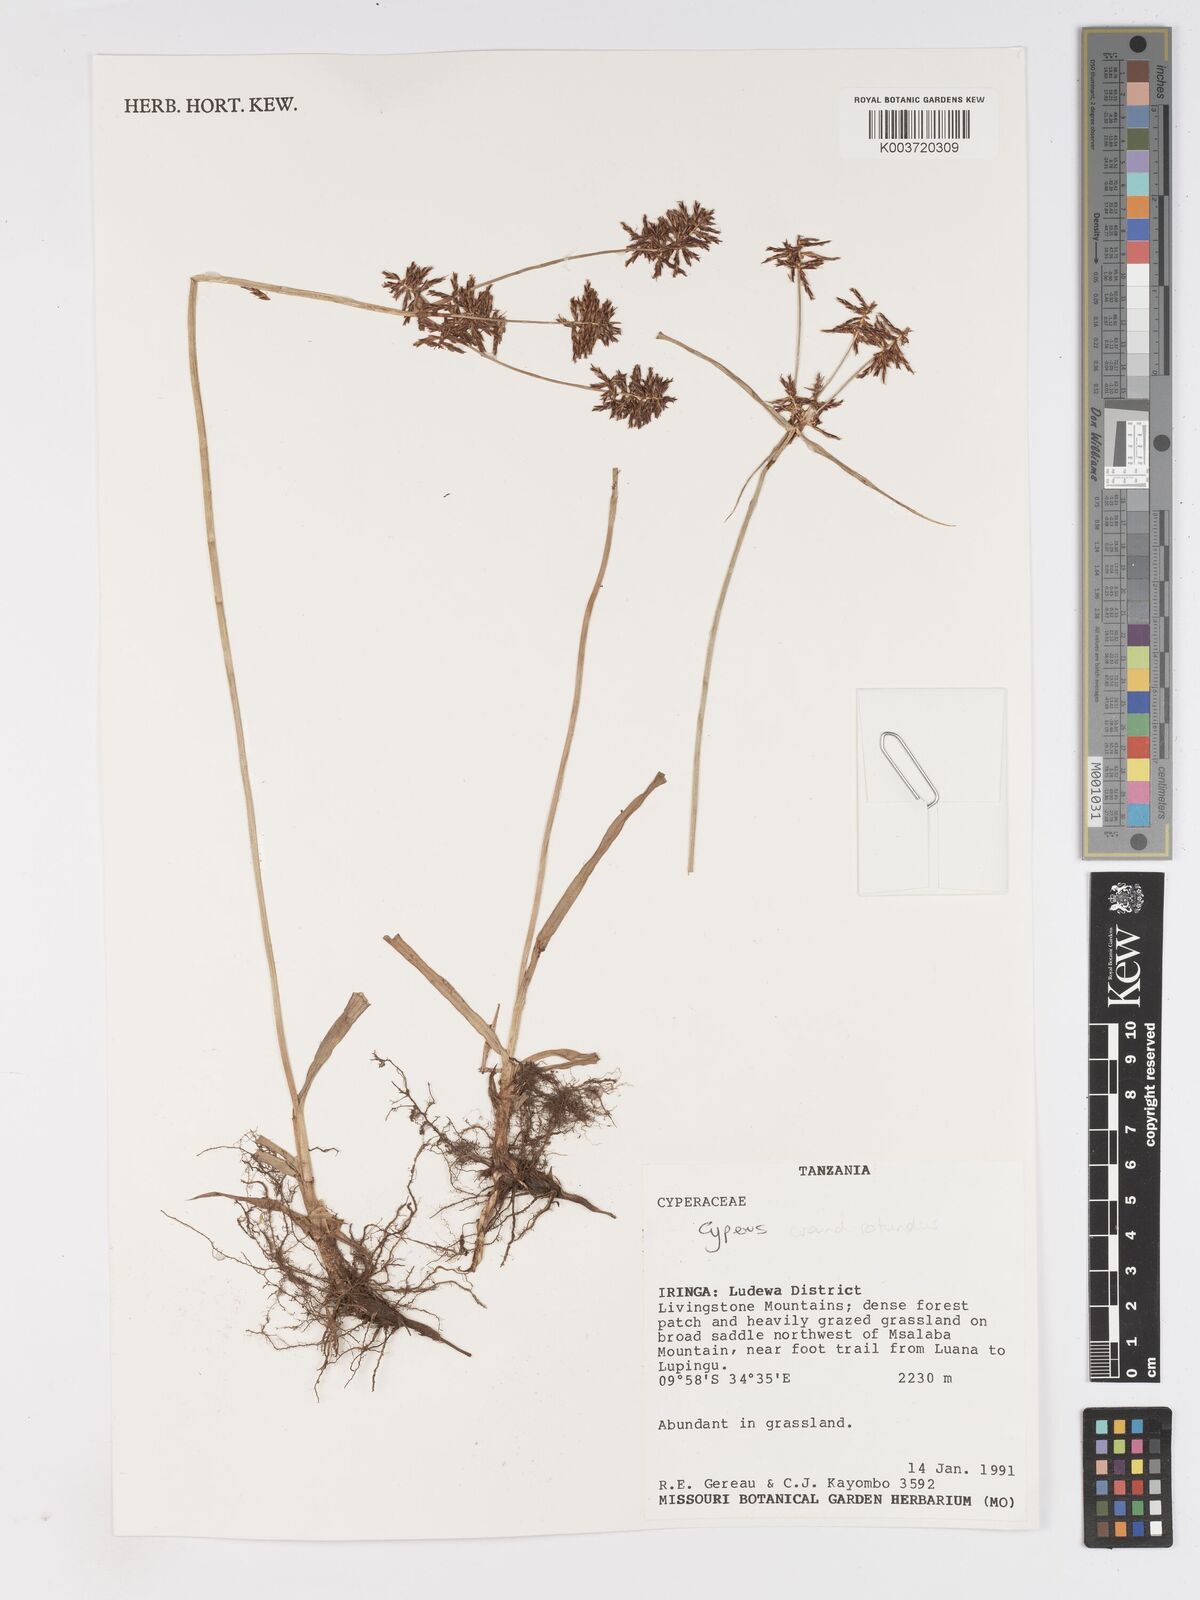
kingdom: Plantae
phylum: Tracheophyta
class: Liliopsida
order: Poales
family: Cyperaceae
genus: Cyperus
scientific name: Cyperus
